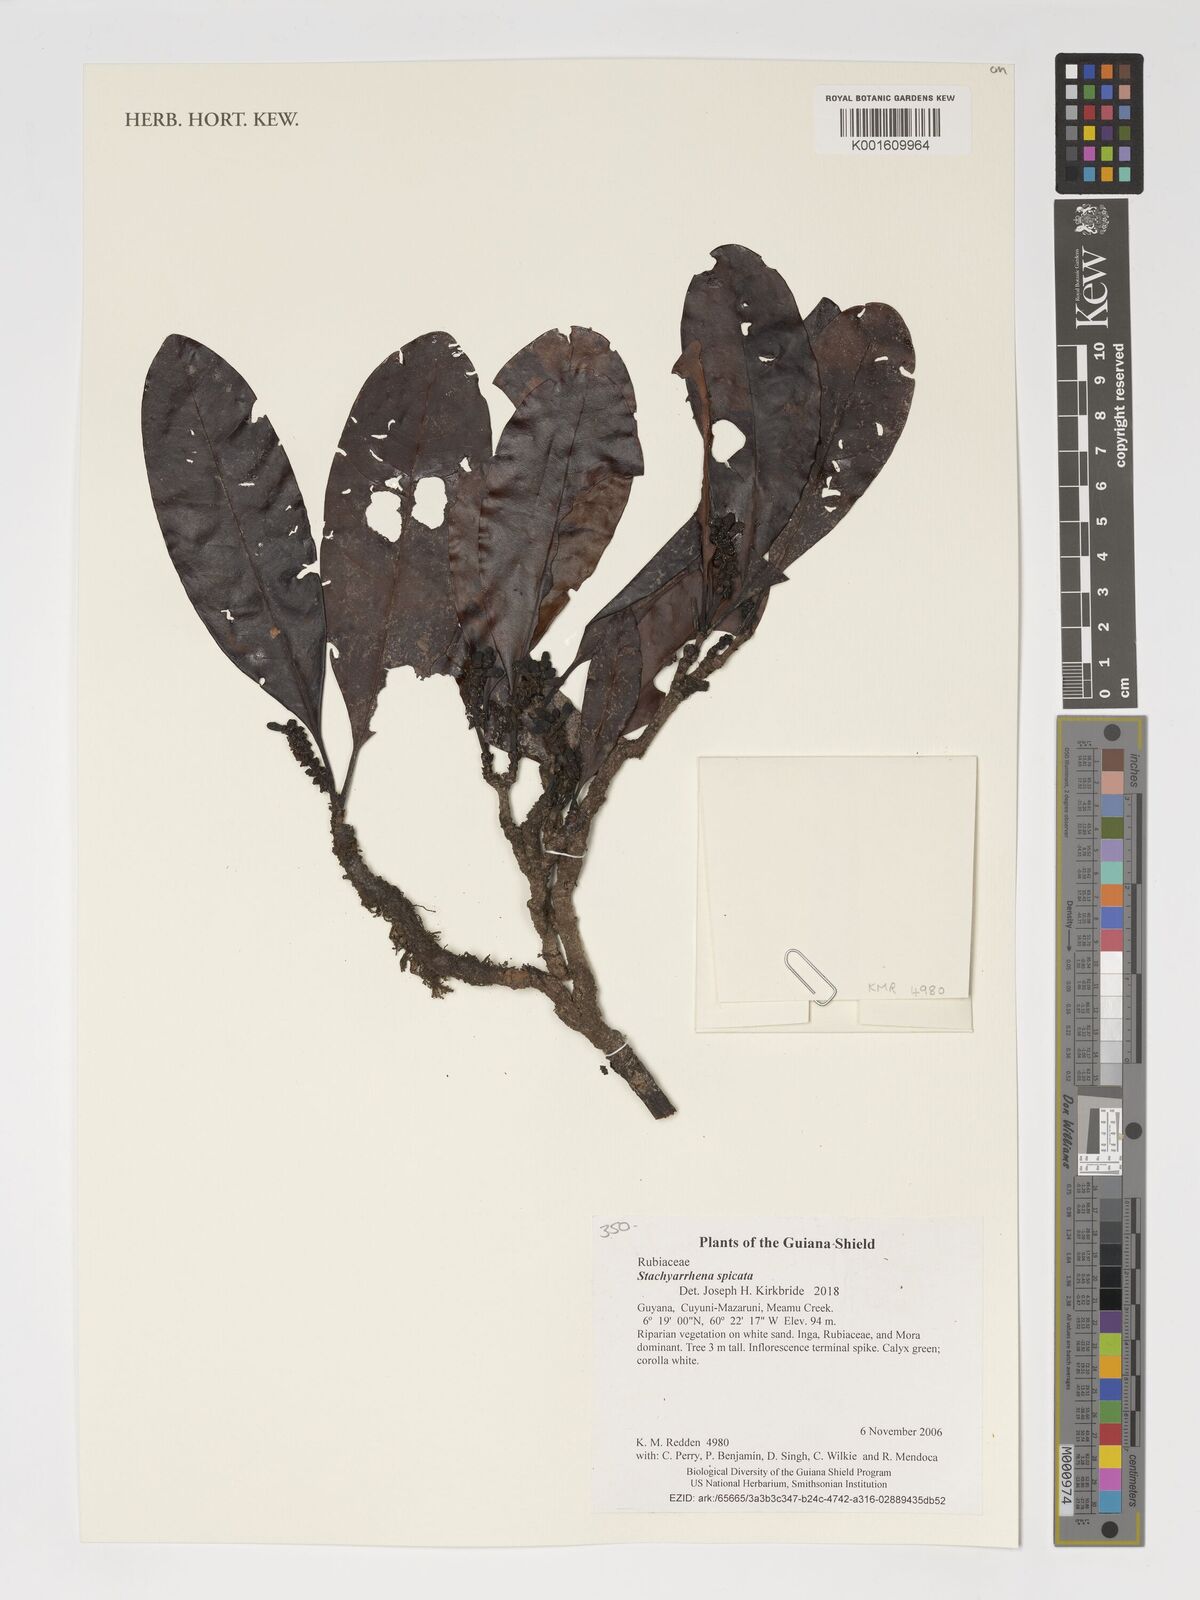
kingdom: Plantae
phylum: Tracheophyta
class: Magnoliopsida
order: Gentianales
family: Rubiaceae
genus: Stachyarrhena
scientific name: Stachyarrhena spicata
